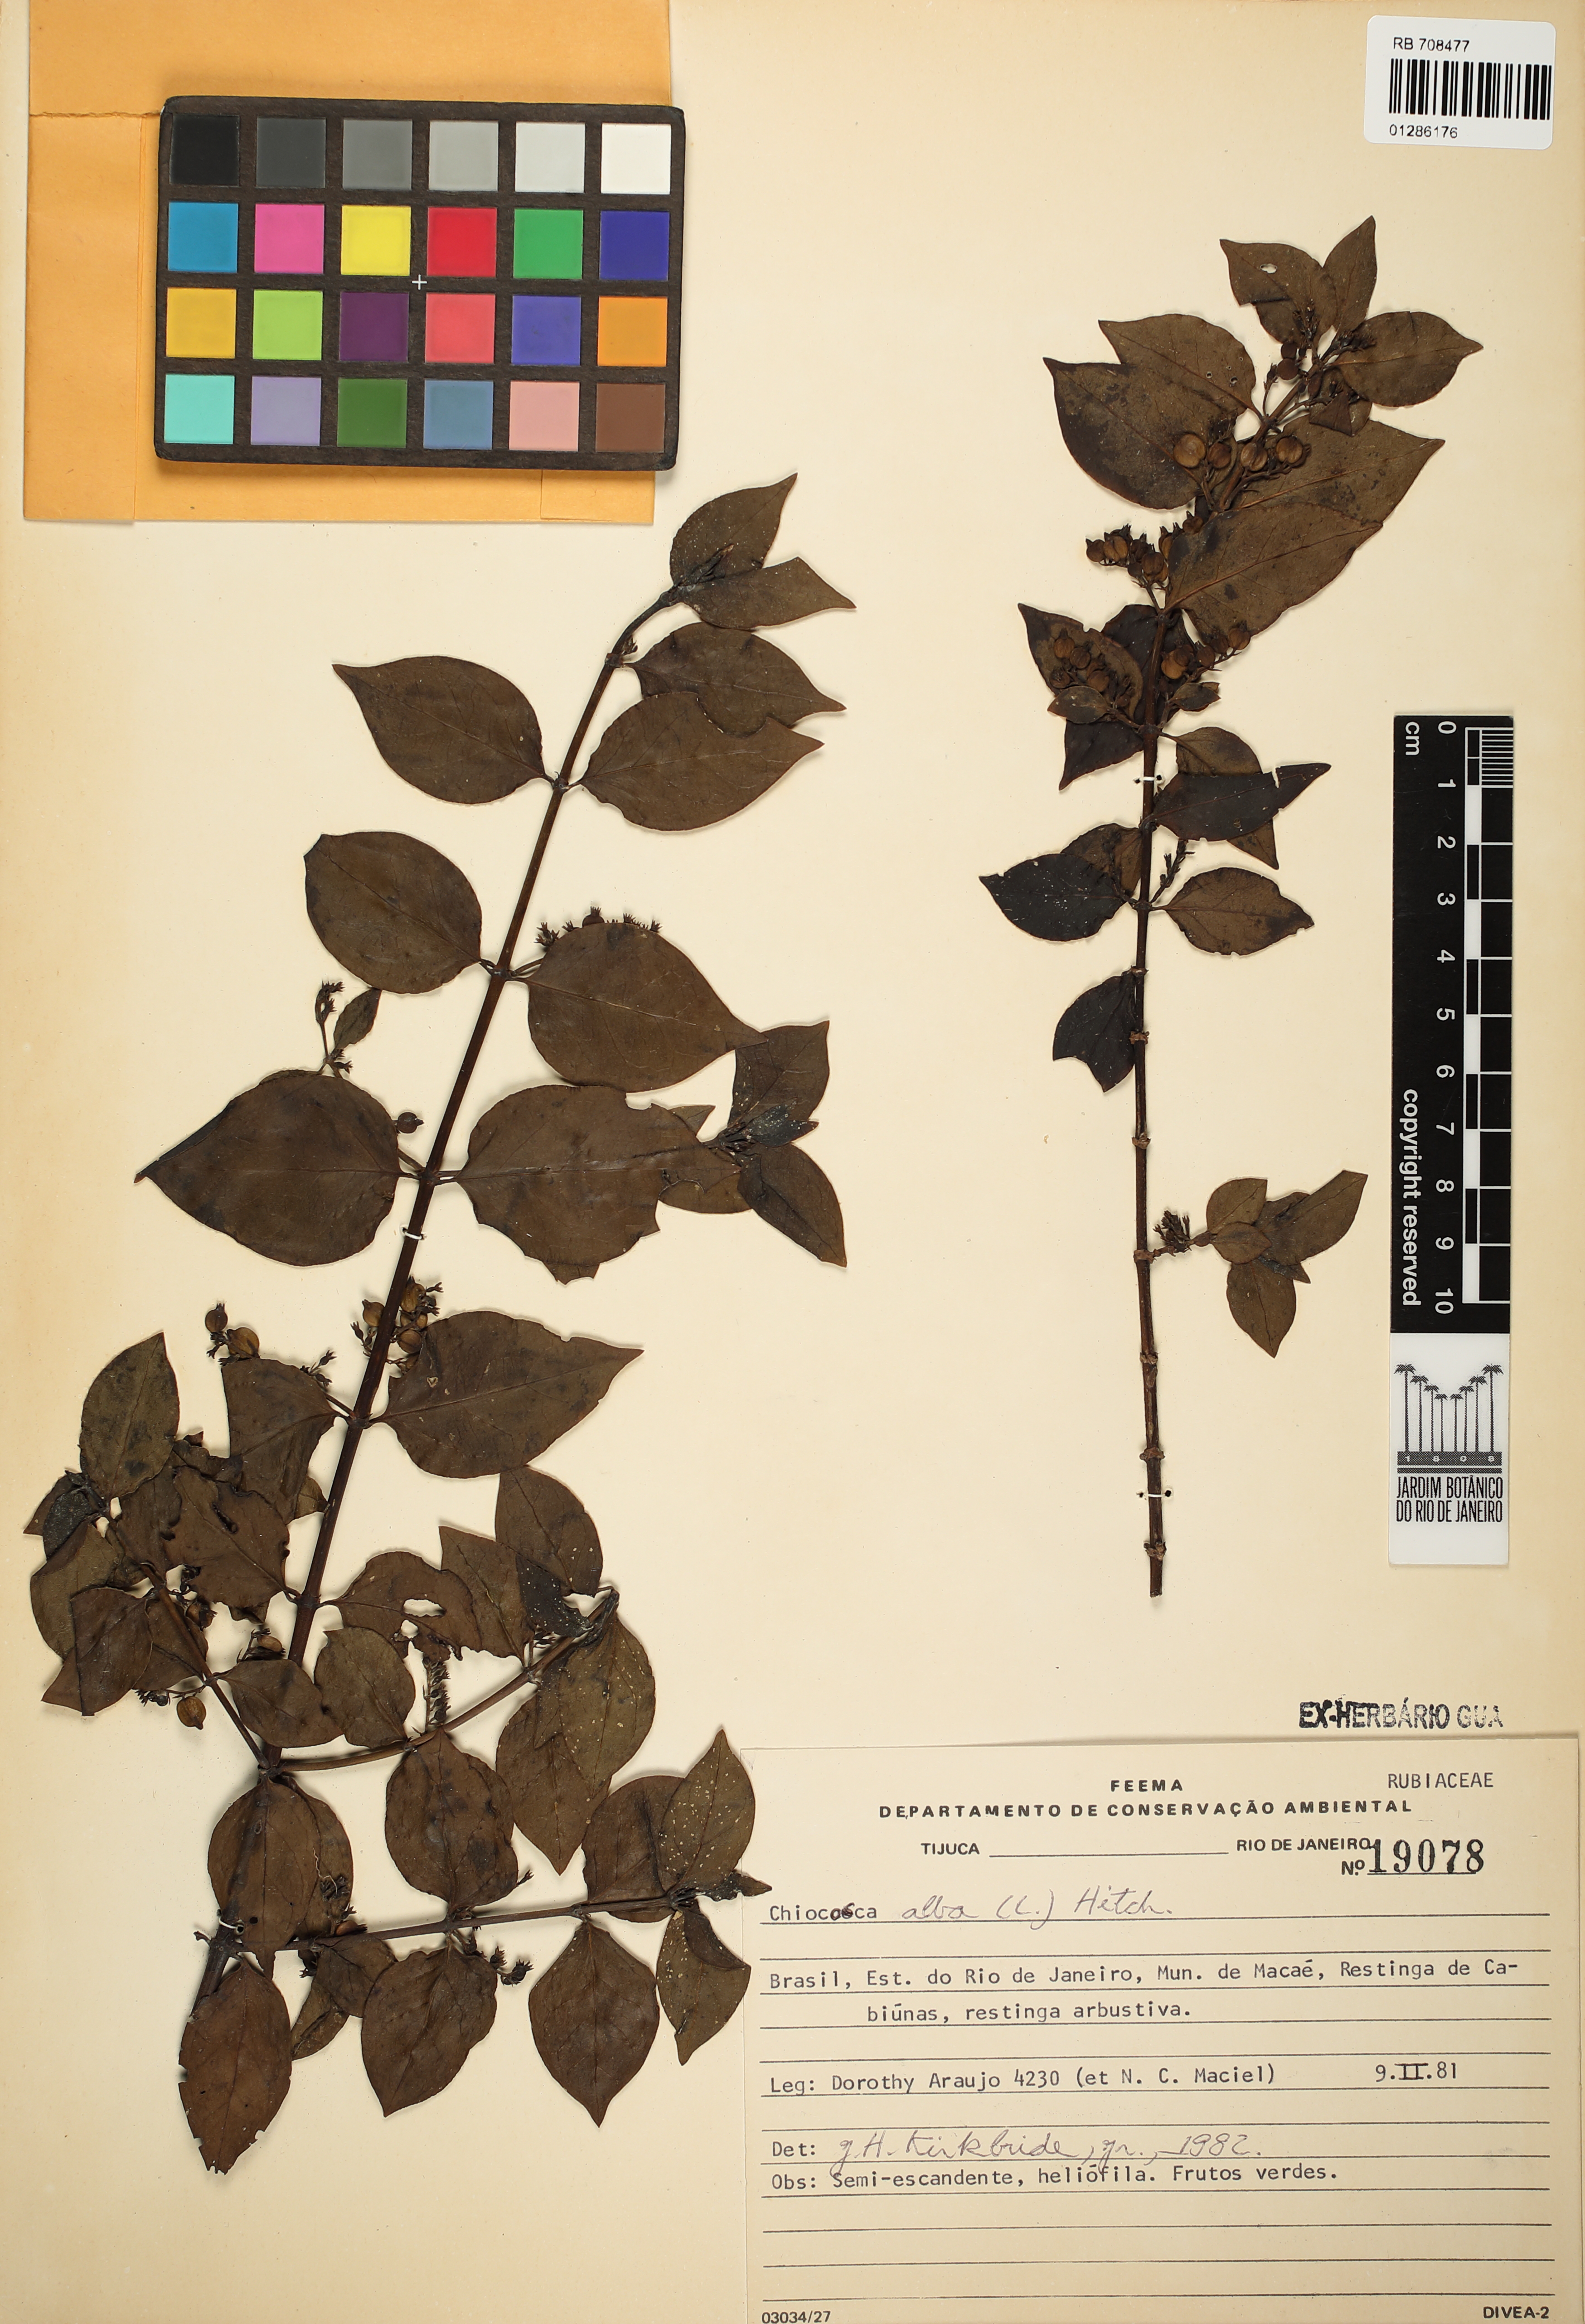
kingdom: Plantae
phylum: Tracheophyta
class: Magnoliopsida
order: Gentianales
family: Rubiaceae
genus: Chiococca
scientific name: Chiococca alba
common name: Snowberry
